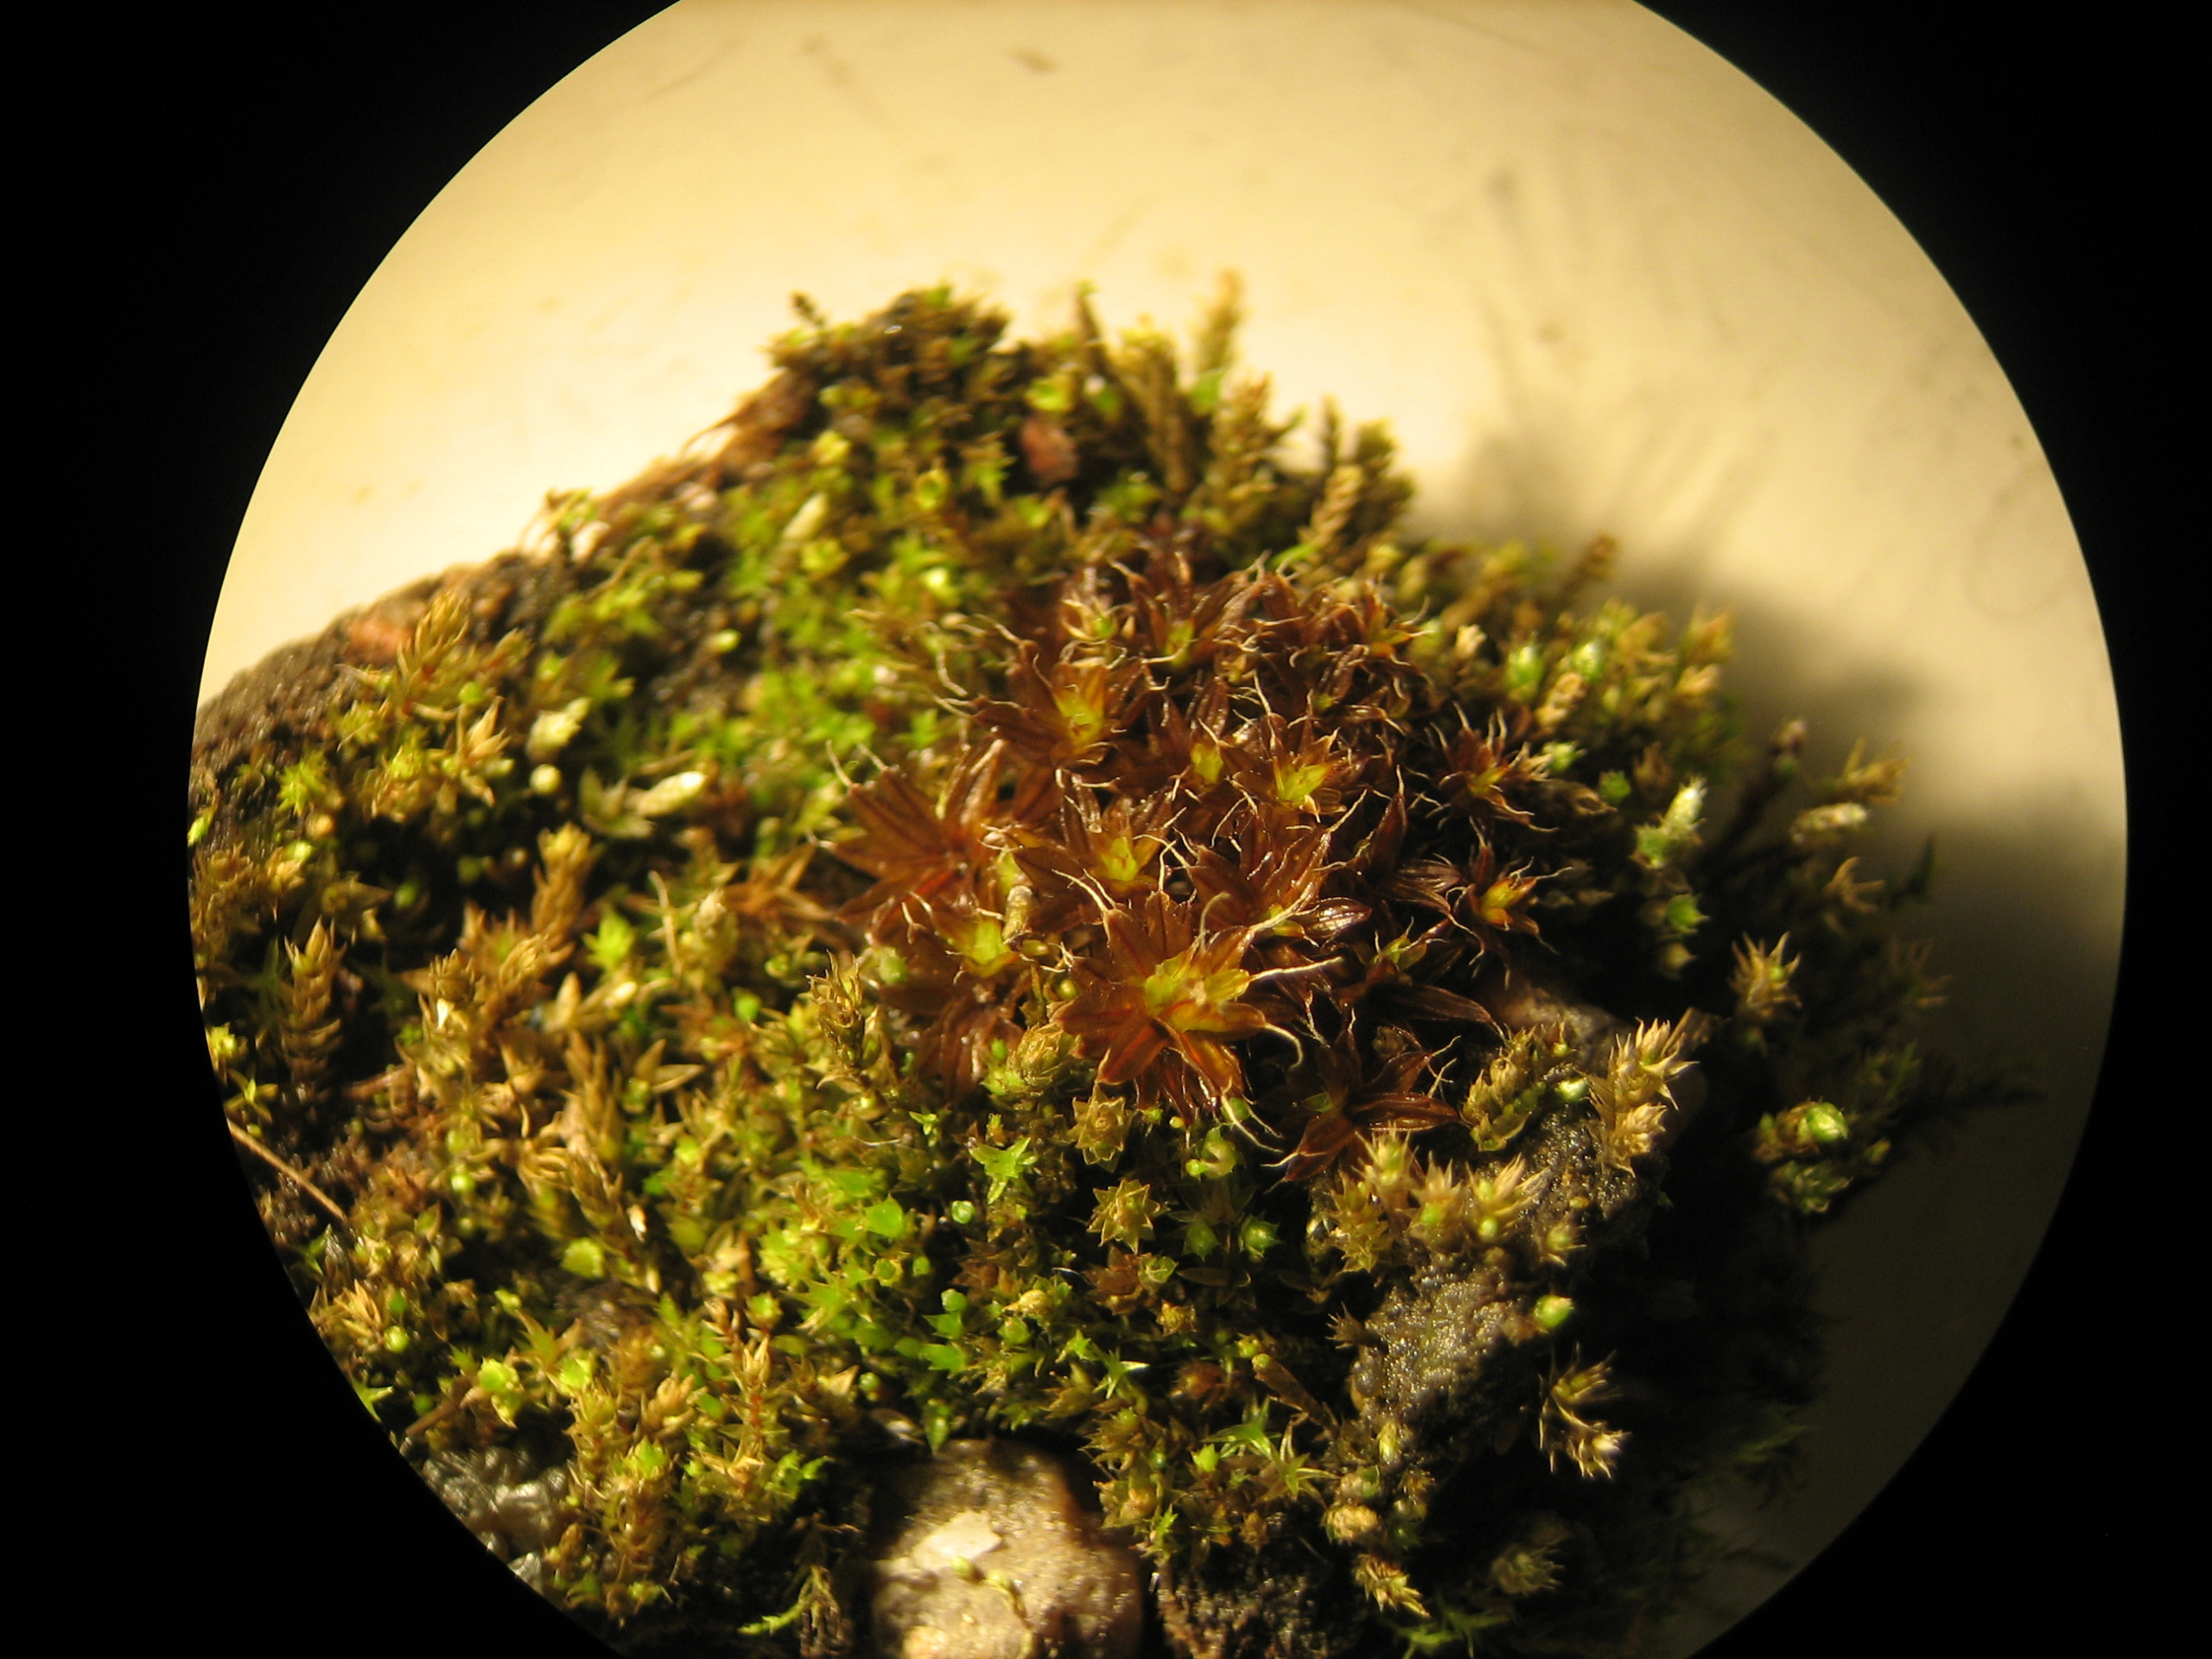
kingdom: Plantae
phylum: Bryophyta
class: Bryopsida
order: Pottiales
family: Pottiaceae
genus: Syntrichia
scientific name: Syntrichia ruralis
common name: Tag-hårstjerne
